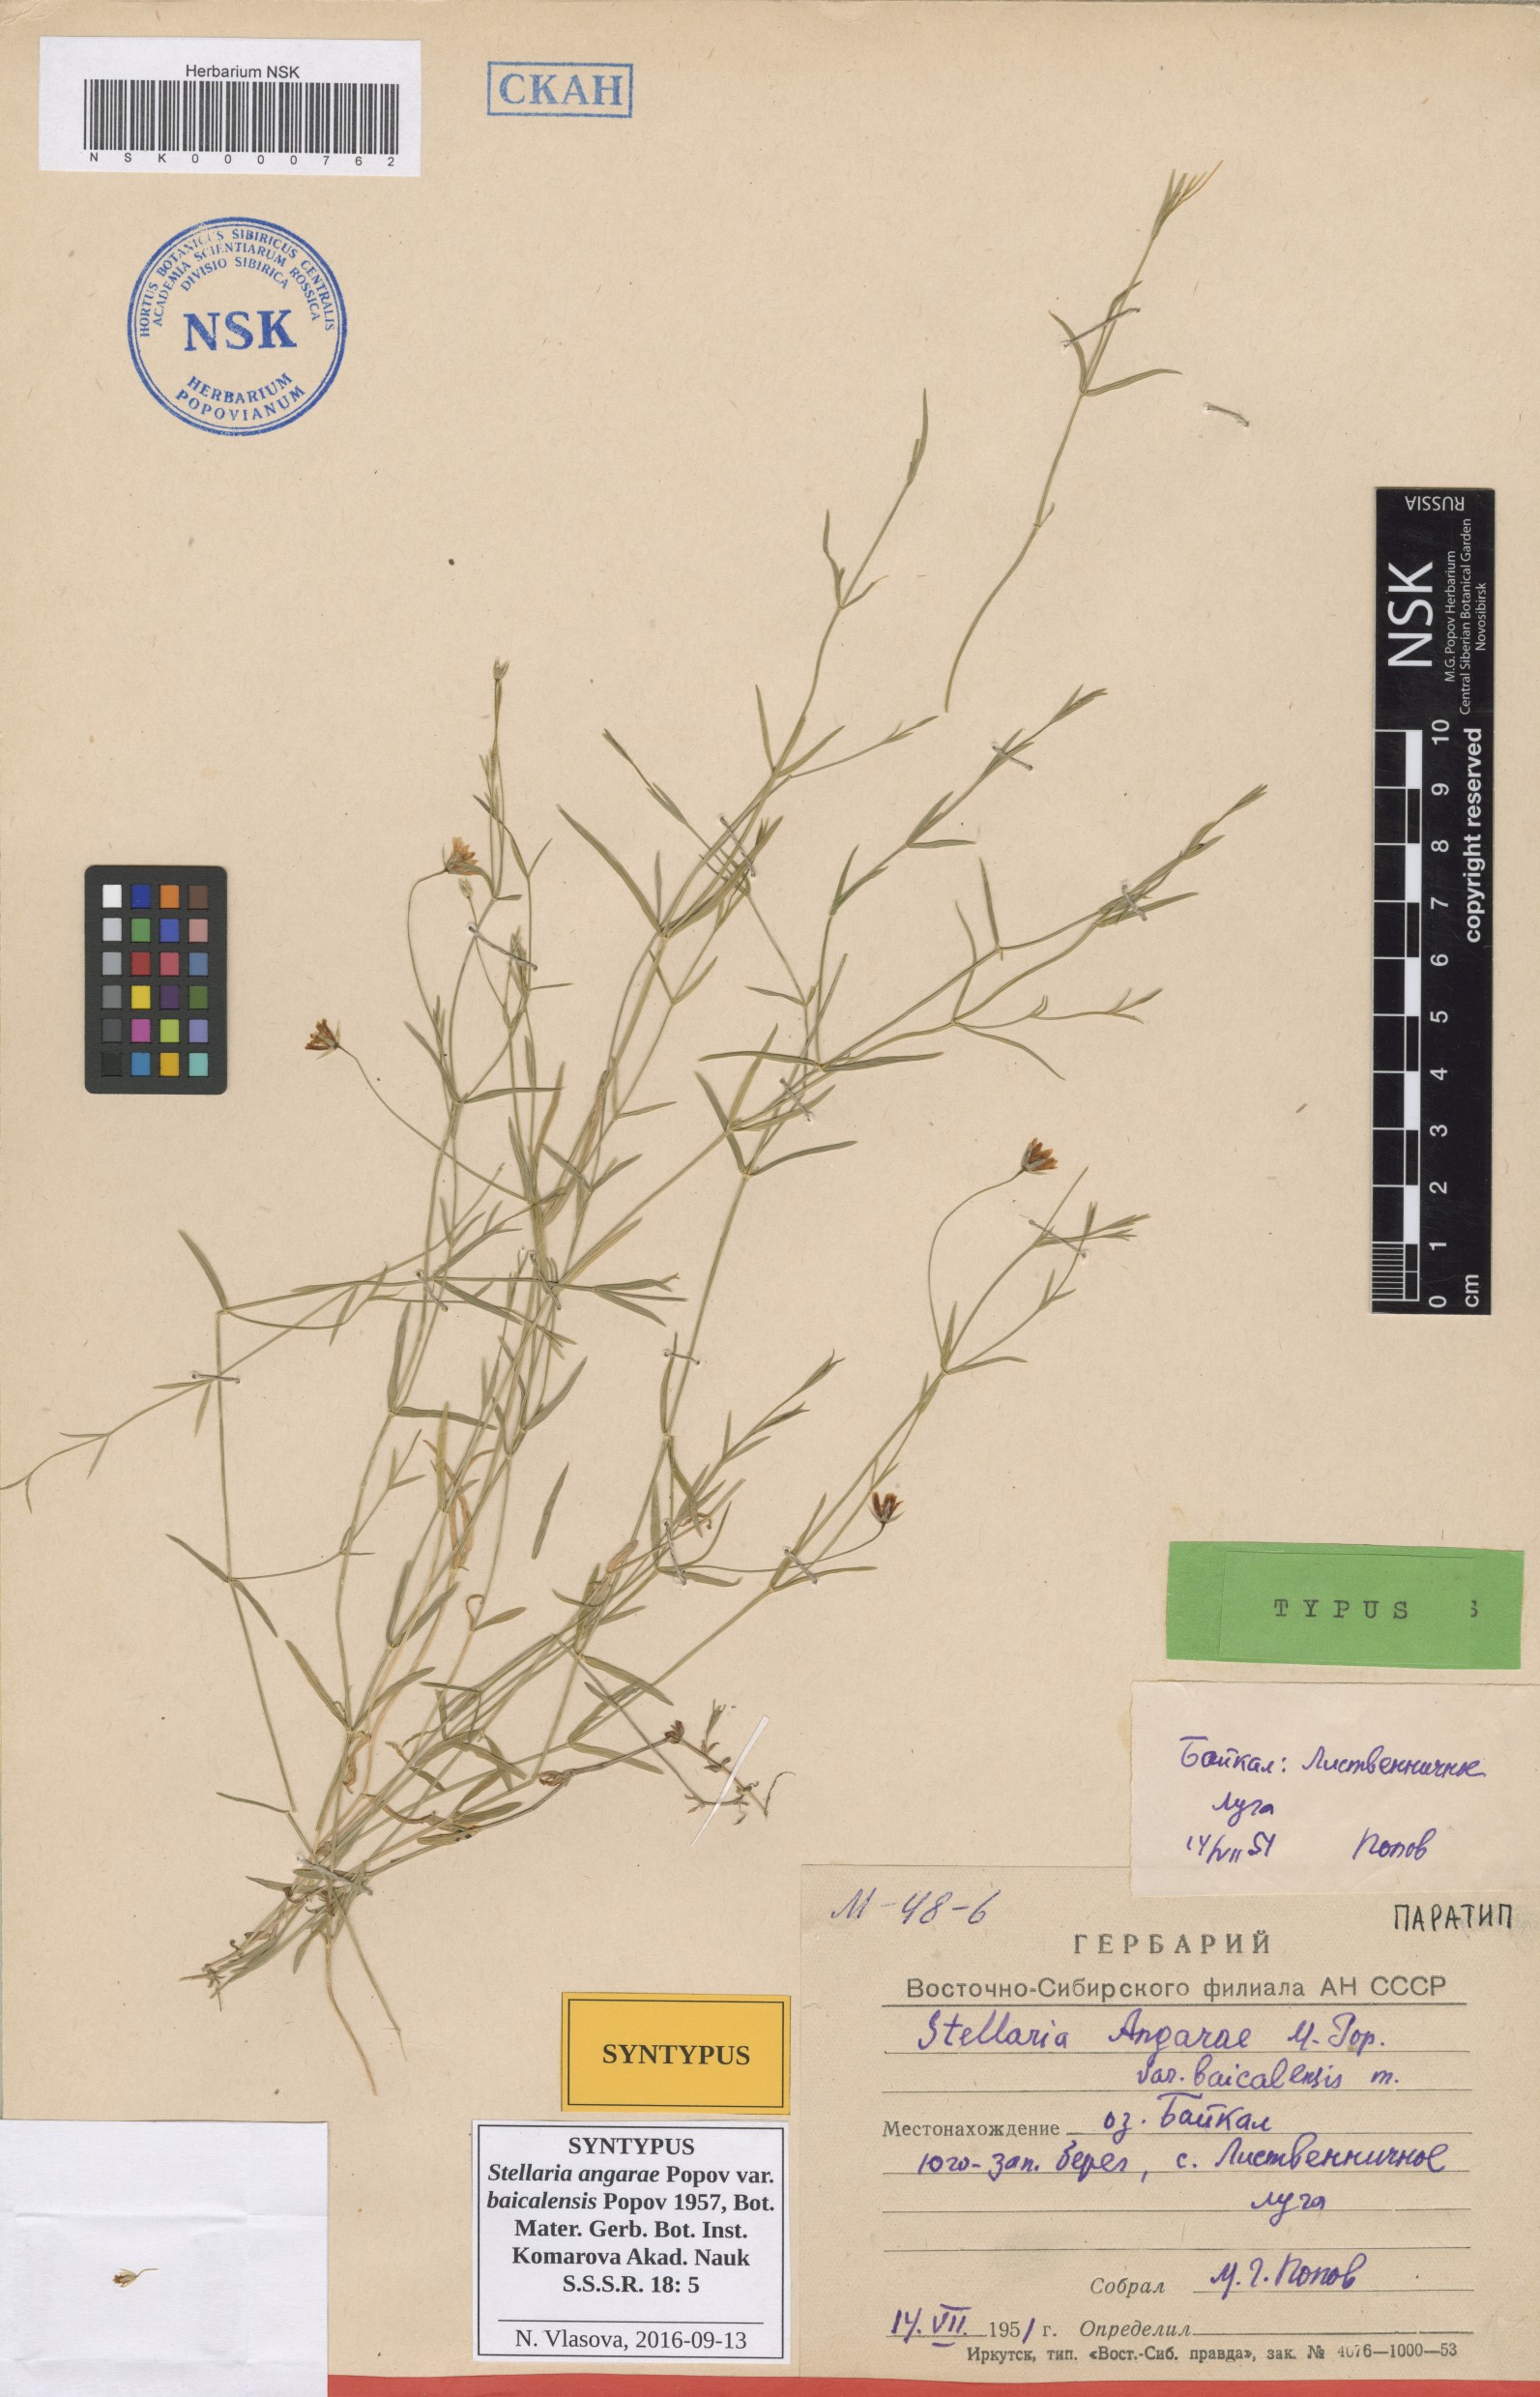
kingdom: Plantae
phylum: Tracheophyta
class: Magnoliopsida
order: Caryophyllales
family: Caryophyllaceae
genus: Stellaria
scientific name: Stellaria angarae
